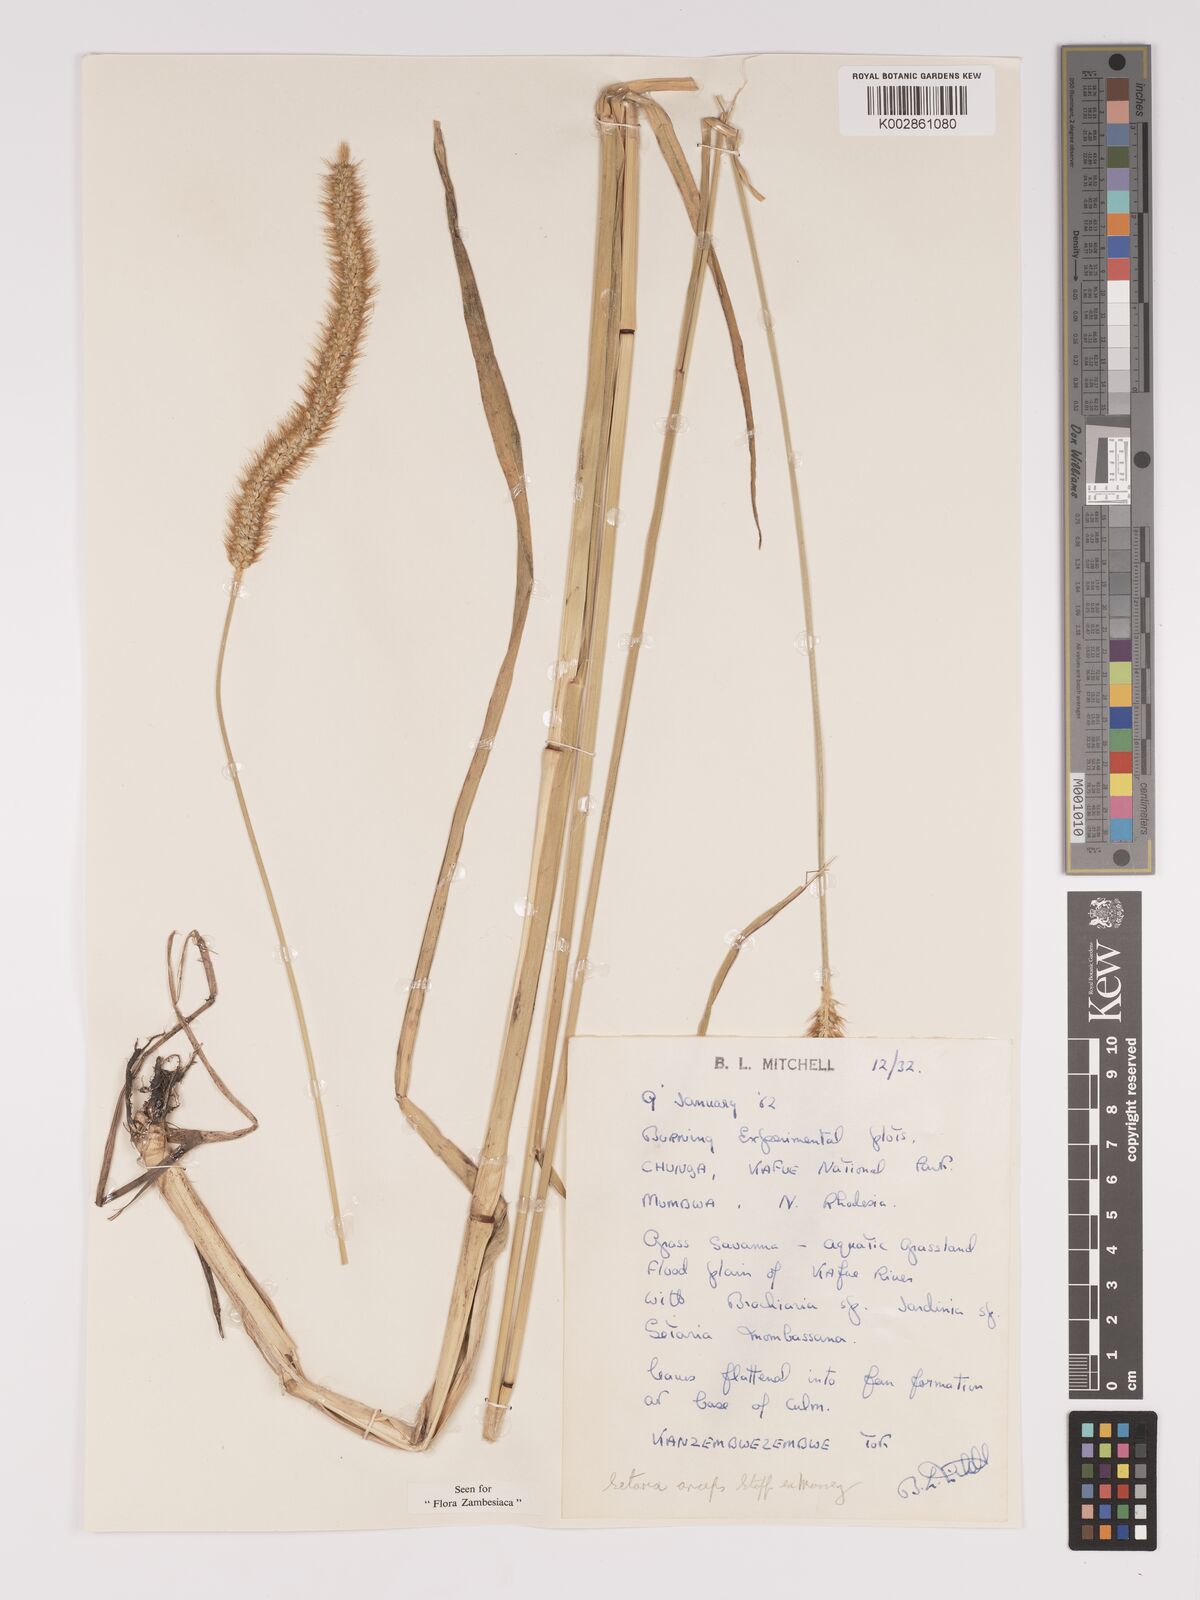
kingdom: Plantae
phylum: Tracheophyta
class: Liliopsida
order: Poales
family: Poaceae
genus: Setaria
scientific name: Setaria sphacelata
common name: African bristlegrass
